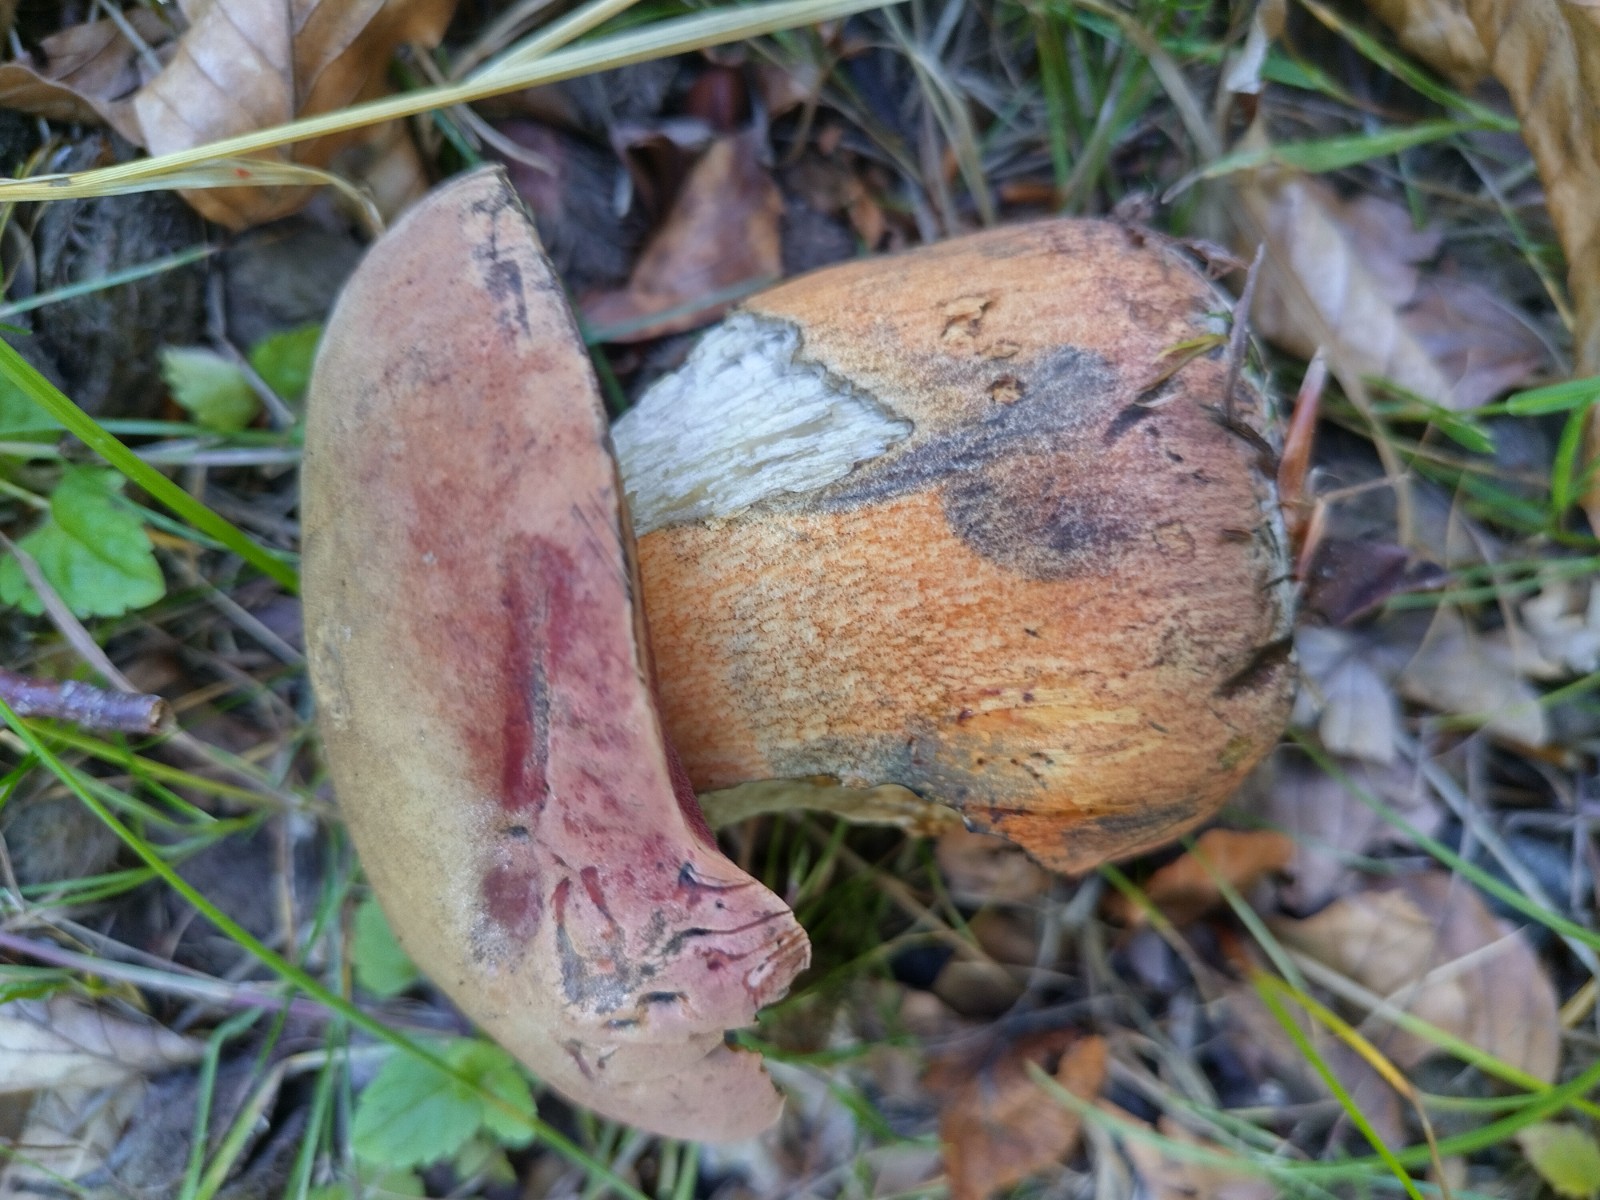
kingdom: Fungi
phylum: Basidiomycota
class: Agaricomycetes
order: Boletales
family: Boletaceae
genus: Suillellus
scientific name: Suillellus luridus
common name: netstokket indigorørhat
